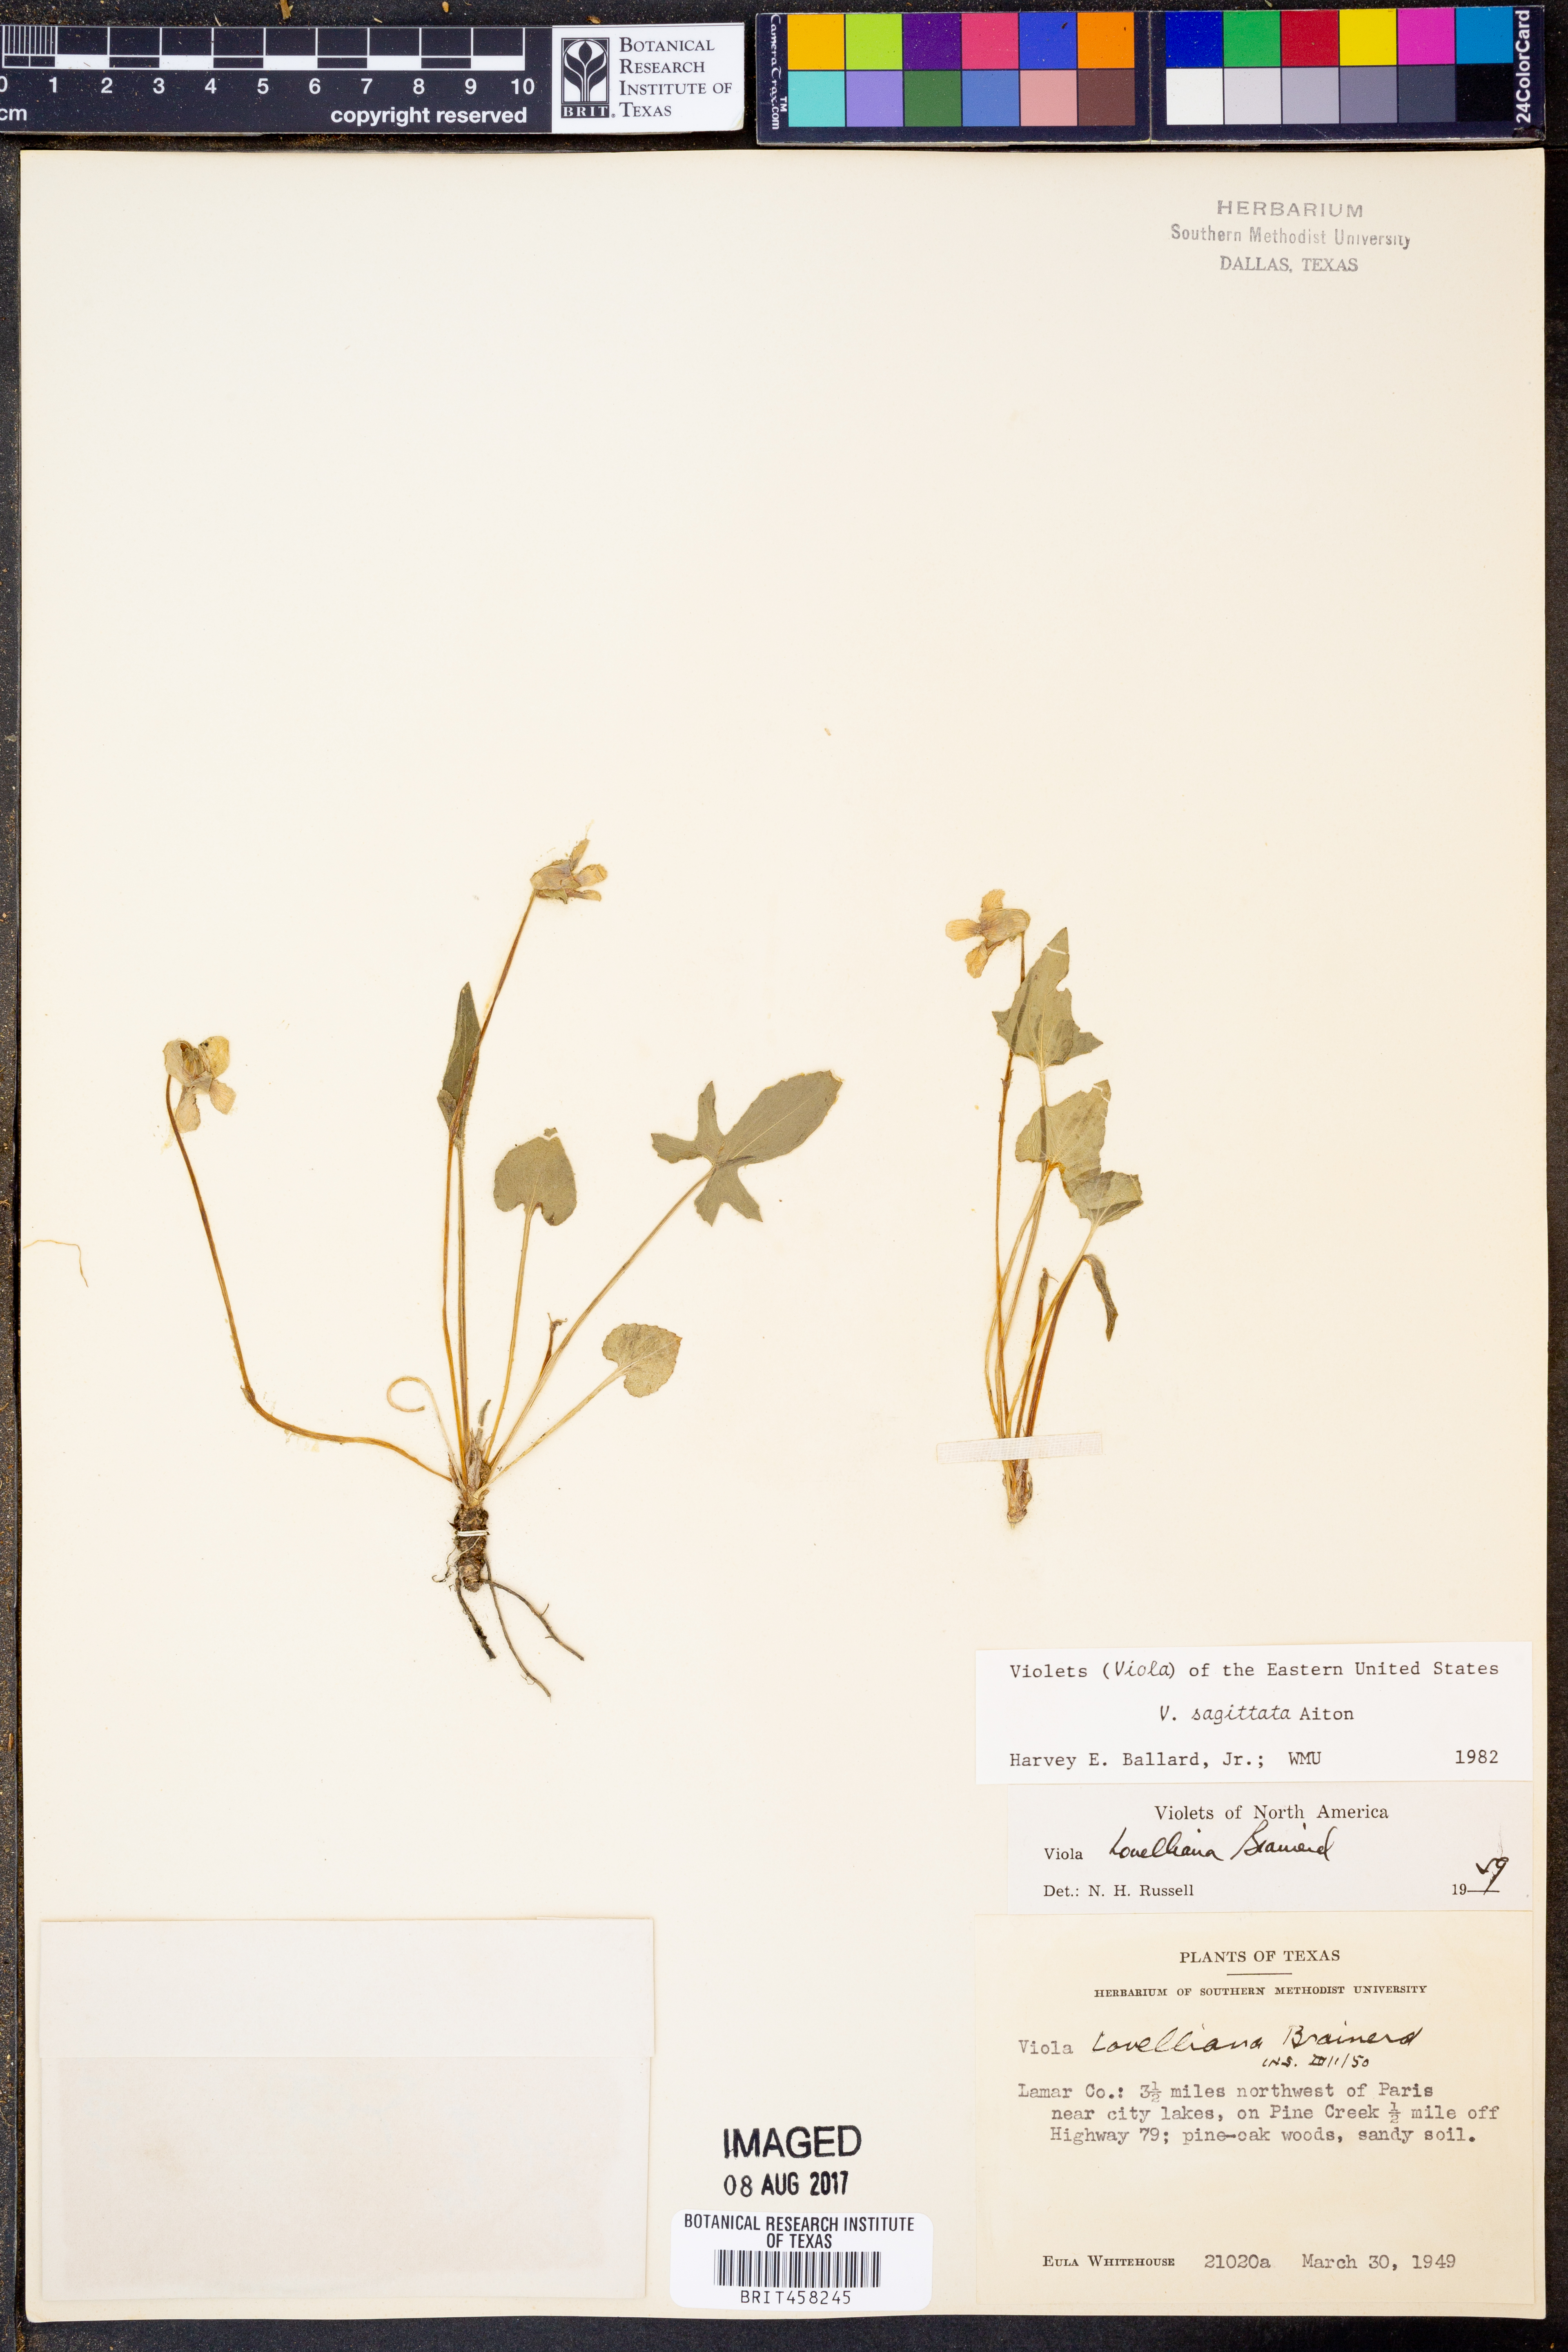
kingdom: Plantae
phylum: Tracheophyta
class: Magnoliopsida
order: Malpighiales
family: Violaceae
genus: Viola
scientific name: Viola sagittata
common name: Arrowhead violet
